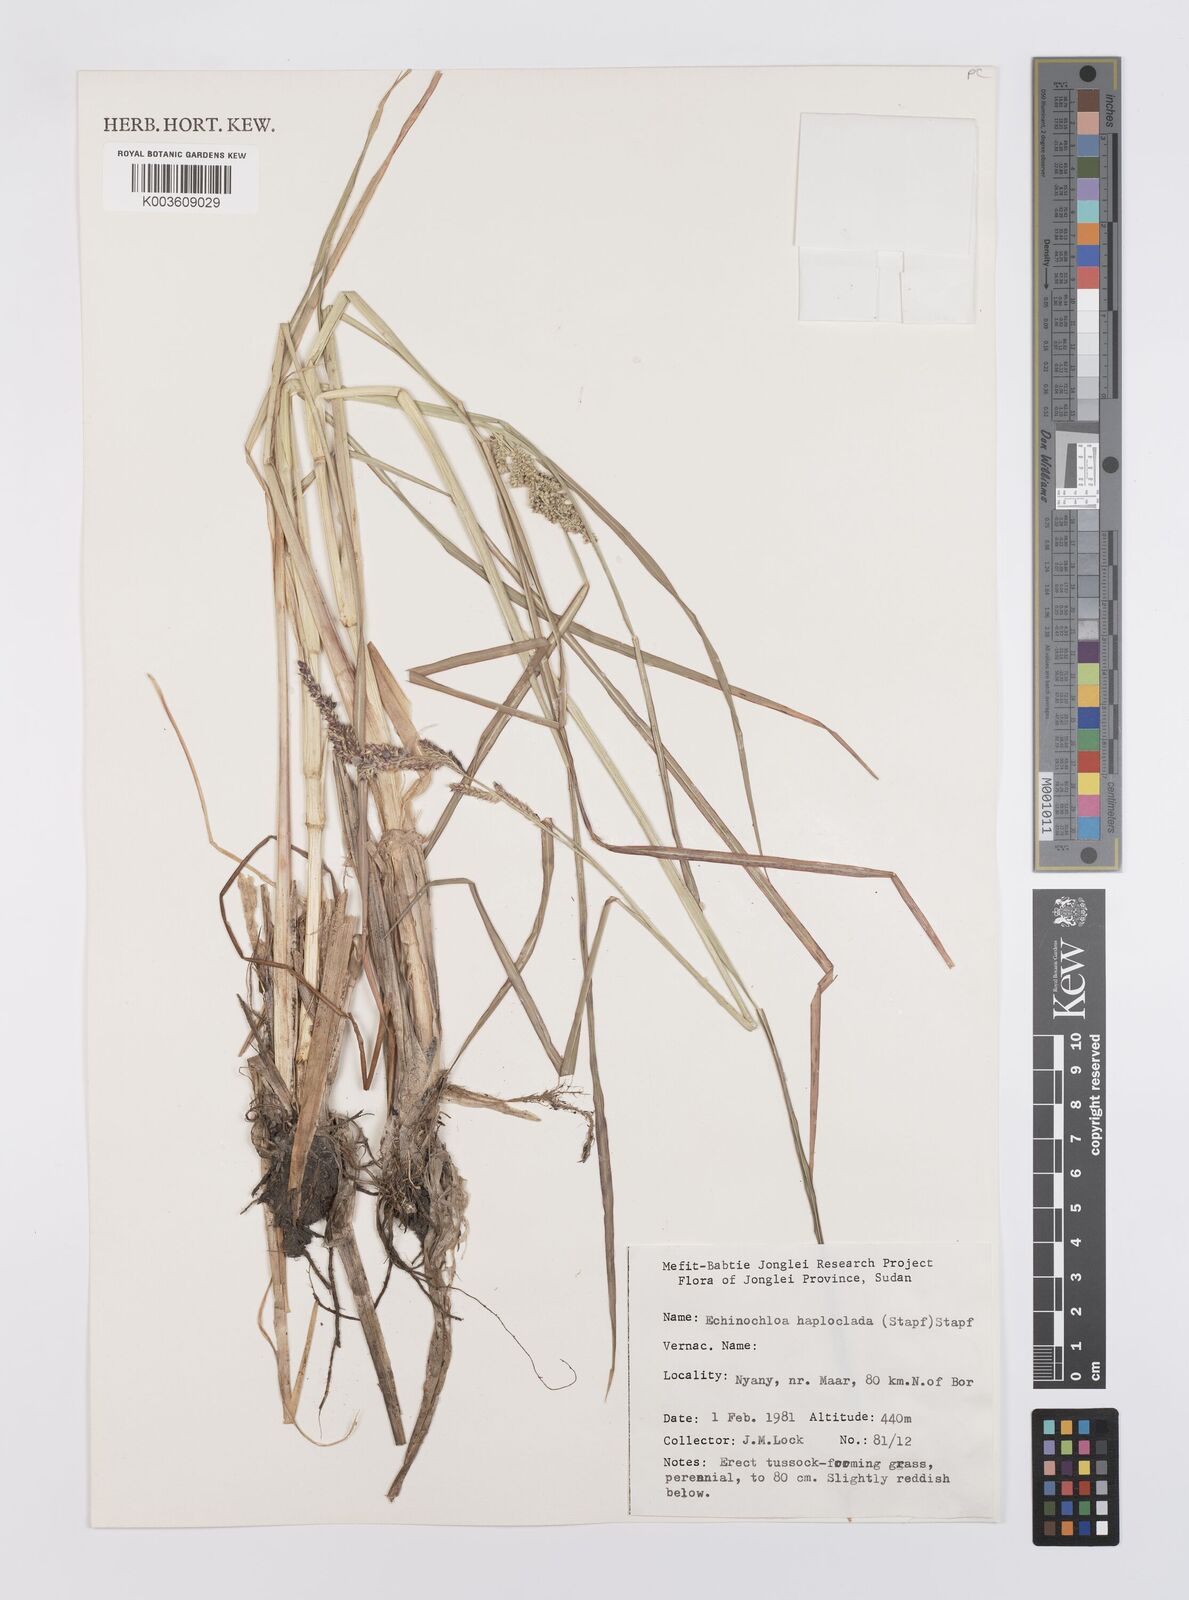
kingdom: Plantae
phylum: Tracheophyta
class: Liliopsida
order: Poales
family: Poaceae
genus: Echinochloa
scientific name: Echinochloa haploclada
